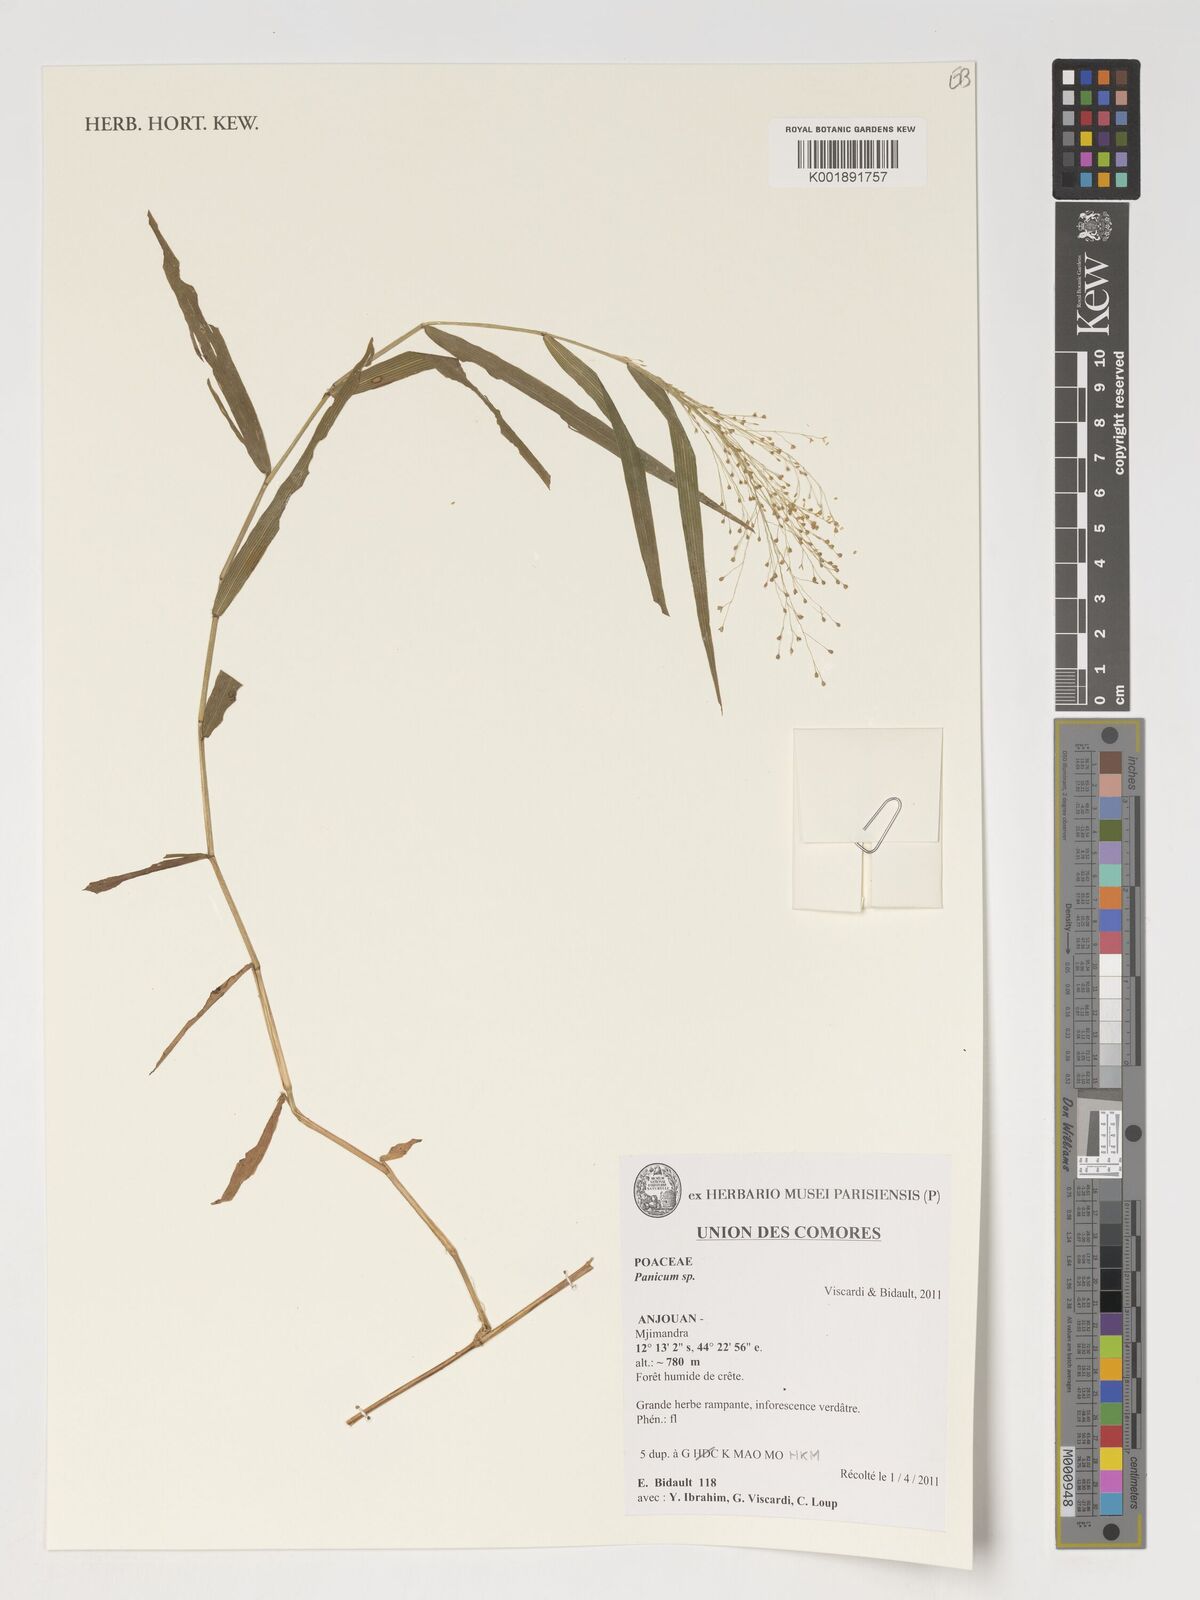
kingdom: Plantae
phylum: Tracheophyta
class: Liliopsida
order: Poales
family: Poaceae
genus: Panicum
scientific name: Panicum
